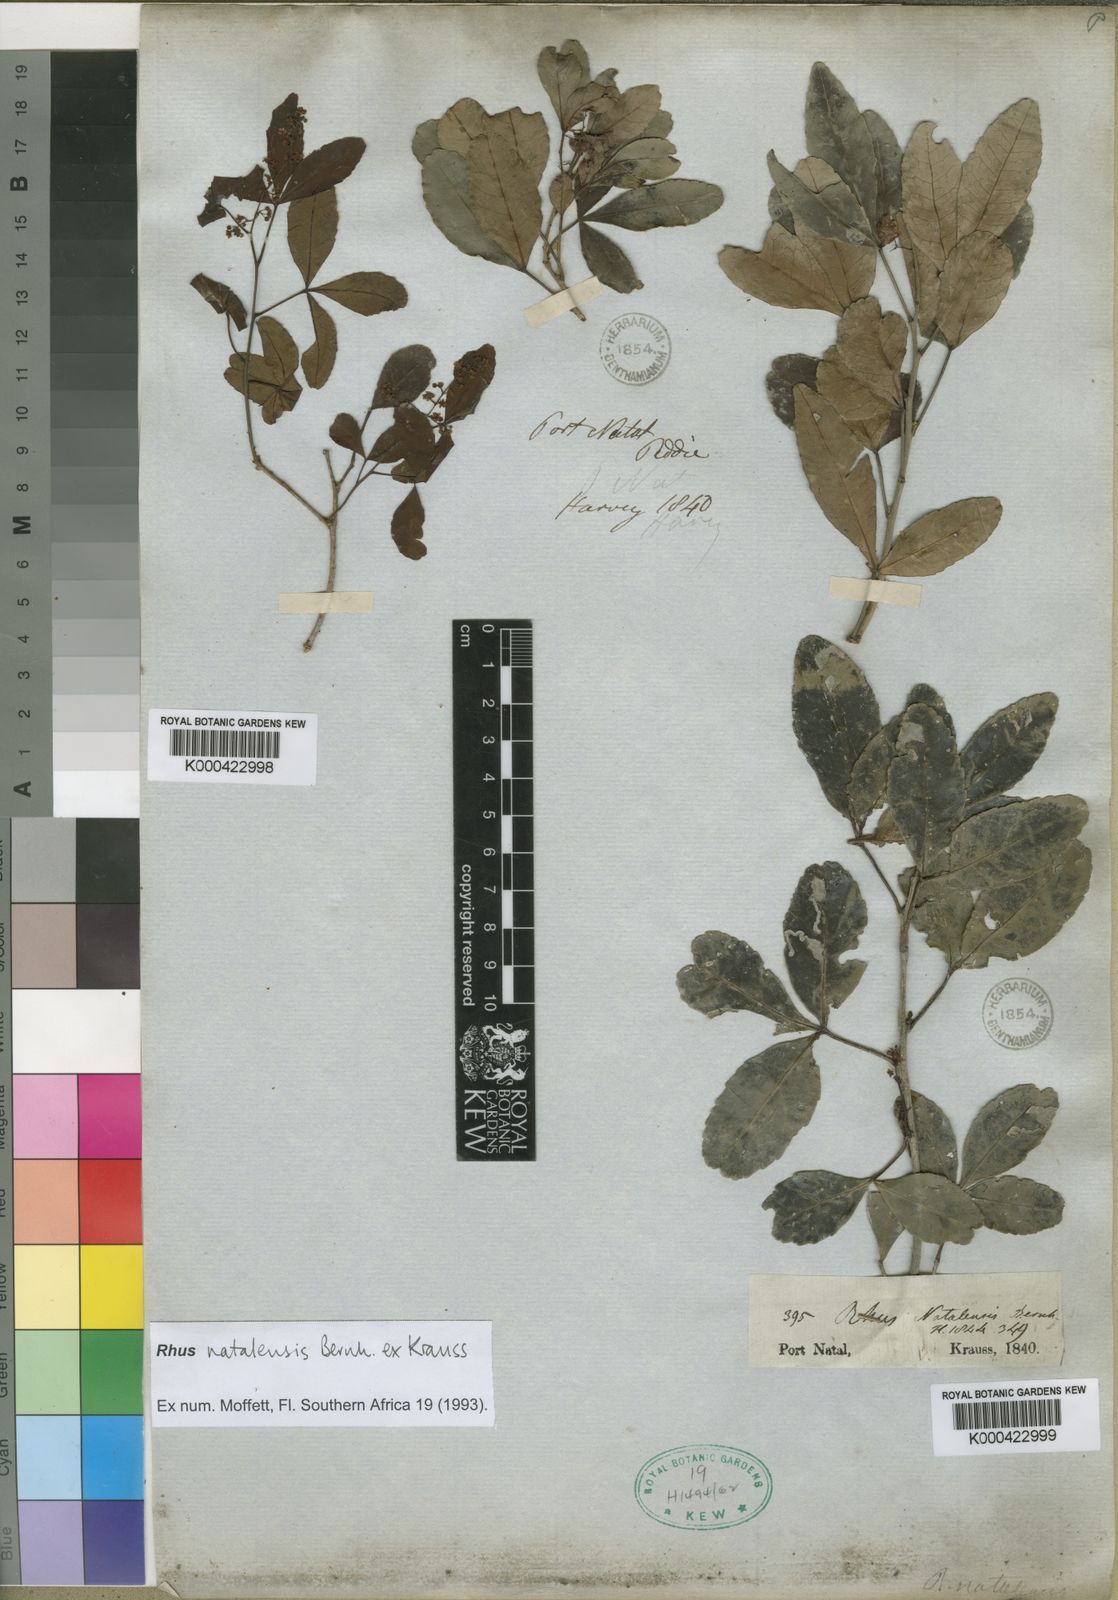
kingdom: Plantae
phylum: Tracheophyta
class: Magnoliopsida
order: Sapindales
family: Anacardiaceae
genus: Searsia
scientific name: Searsia natalensis
